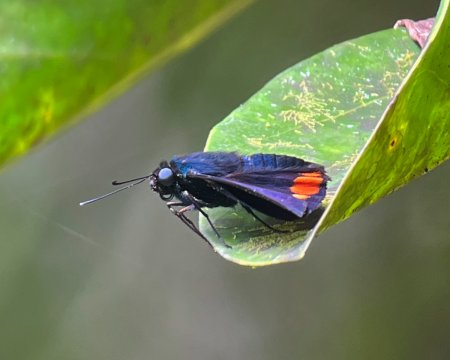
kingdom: Animalia
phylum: Arthropoda
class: Insecta
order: Lepidoptera
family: Hesperiidae
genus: Creonpyge
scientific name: Creonpyge creon
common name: Creon Skipper
